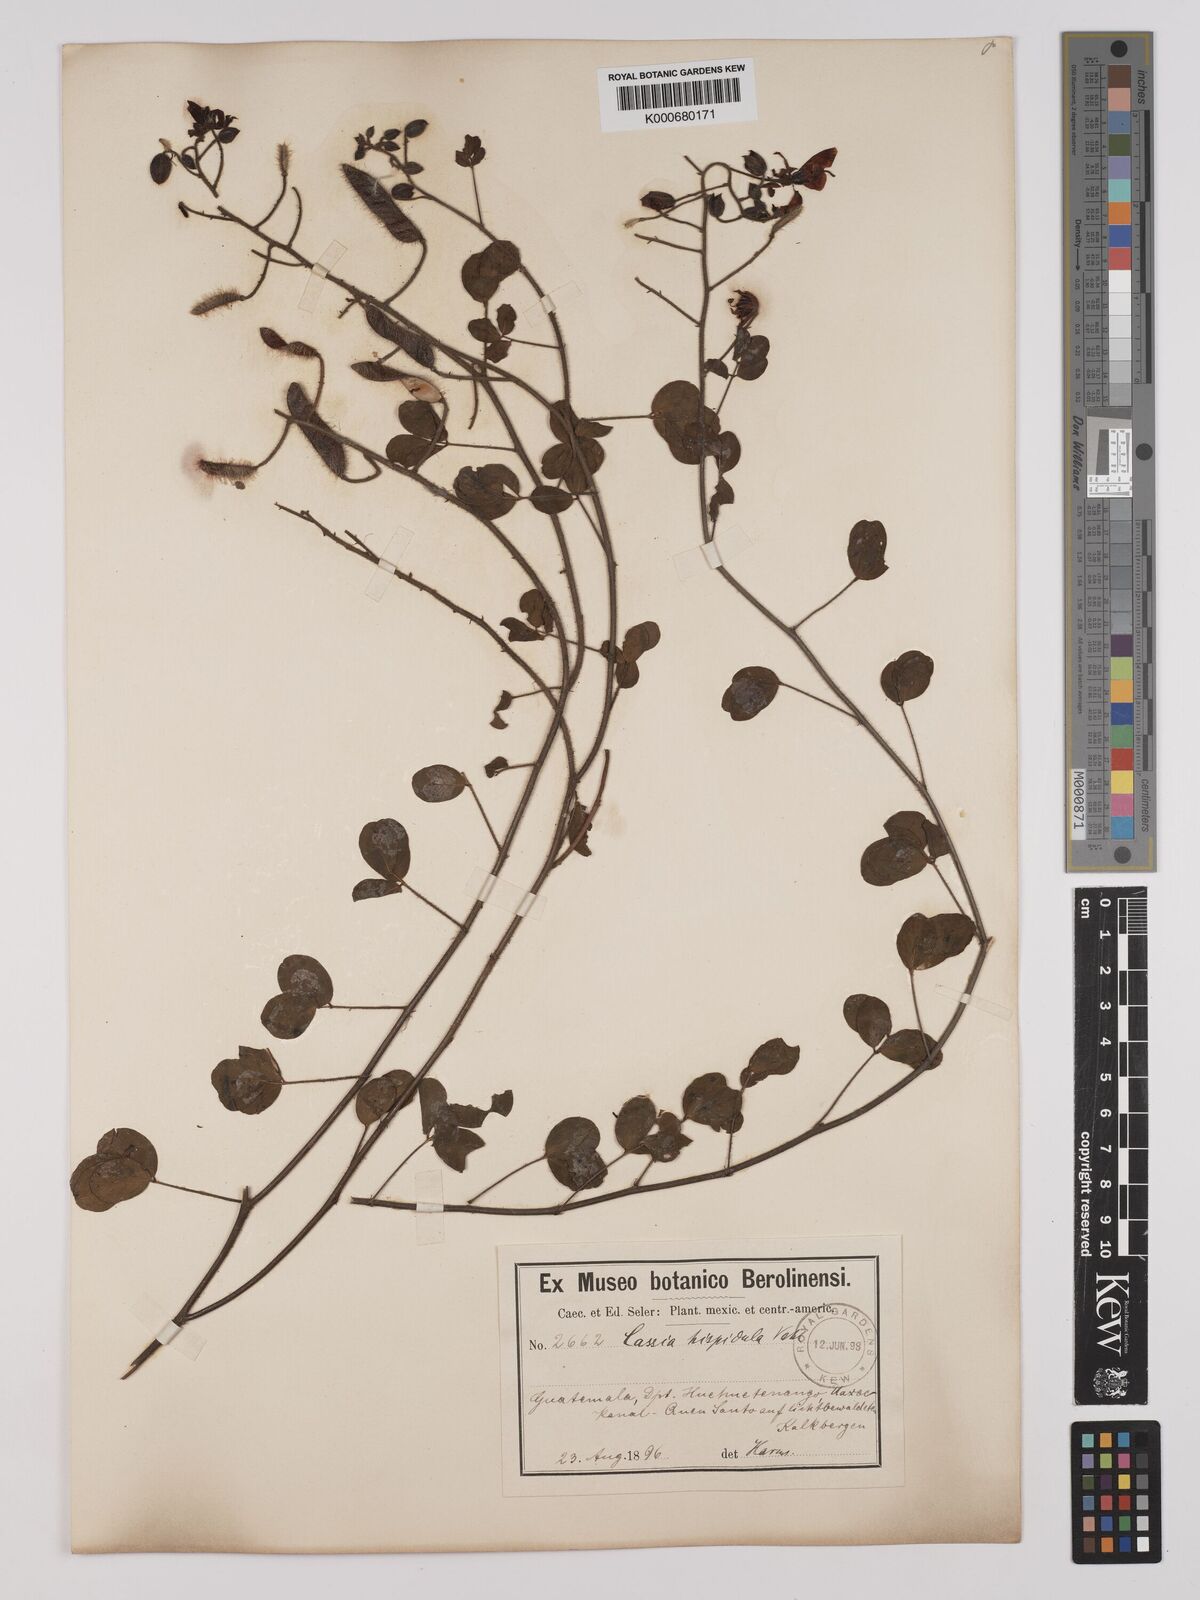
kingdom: Plantae
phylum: Tracheophyta
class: Magnoliopsida
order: Fabales
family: Fabaceae
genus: Chamaecrista
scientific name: Chamaecrista hispidula
